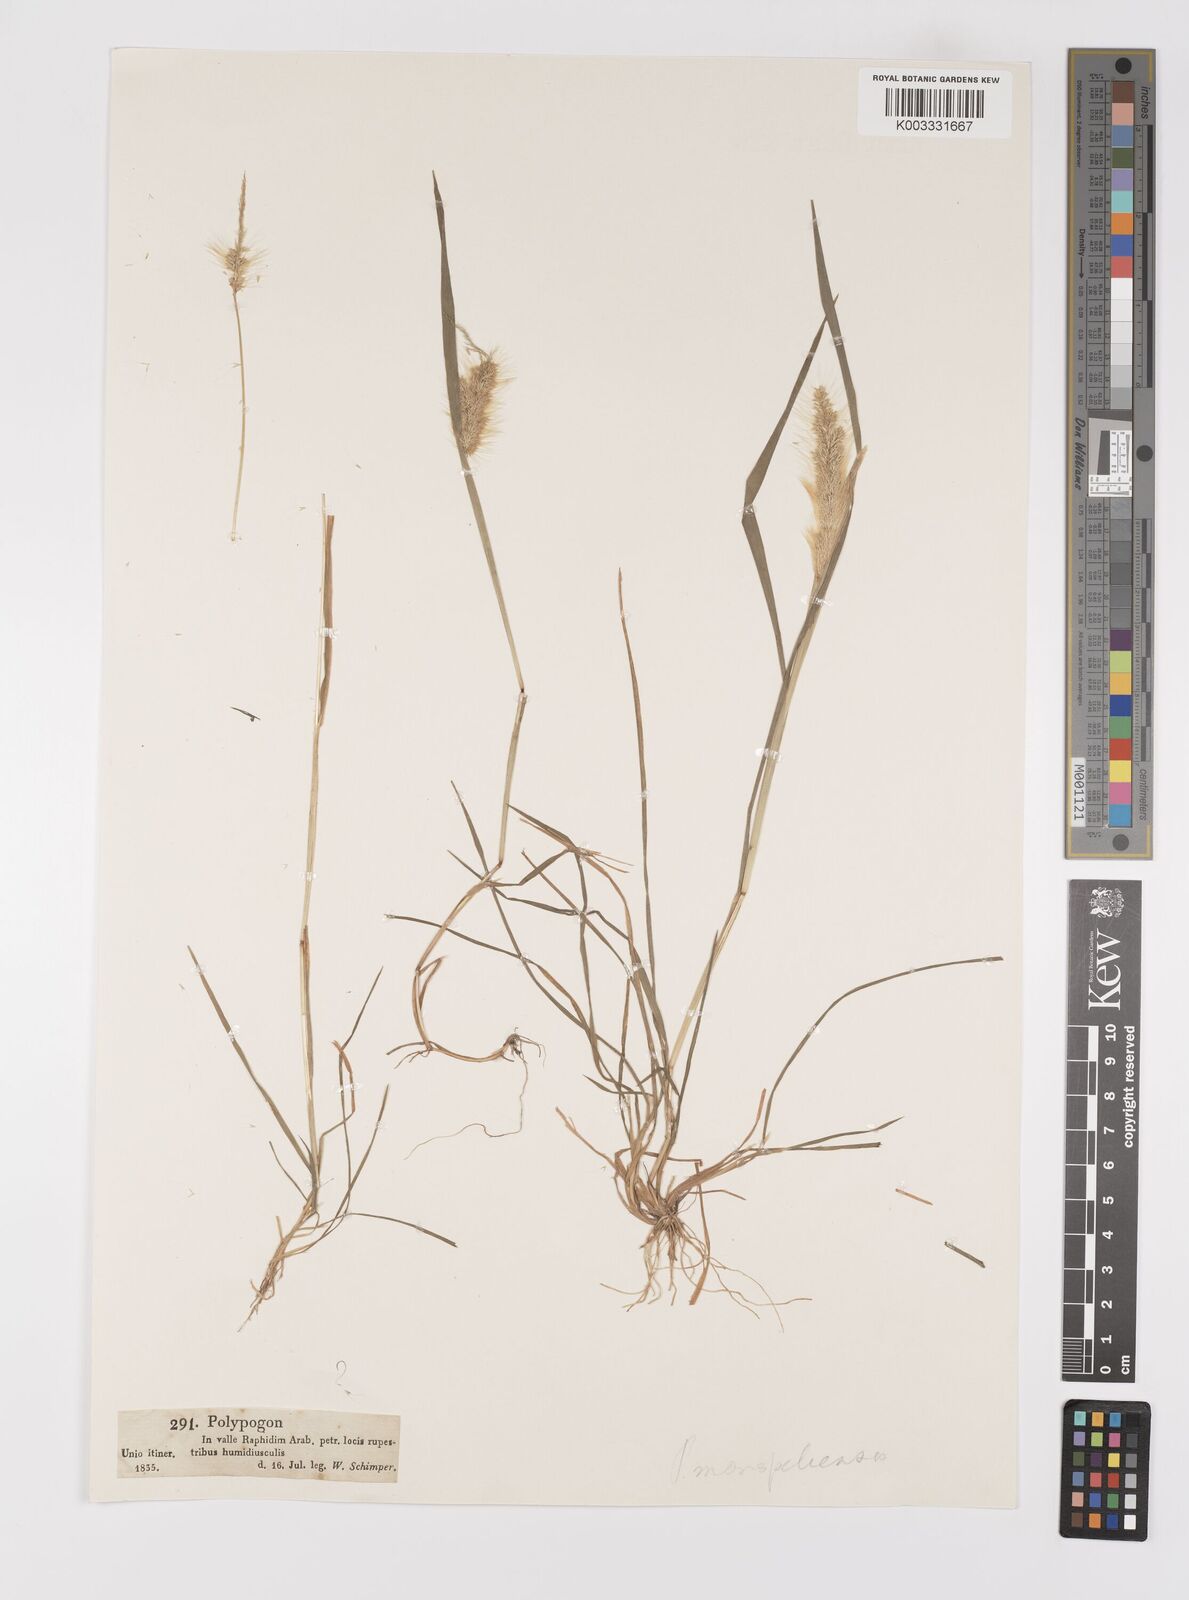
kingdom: Plantae
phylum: Tracheophyta
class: Liliopsida
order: Poales
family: Poaceae
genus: Polypogon
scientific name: Polypogon monspeliensis
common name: Annual rabbitsfoot grass
